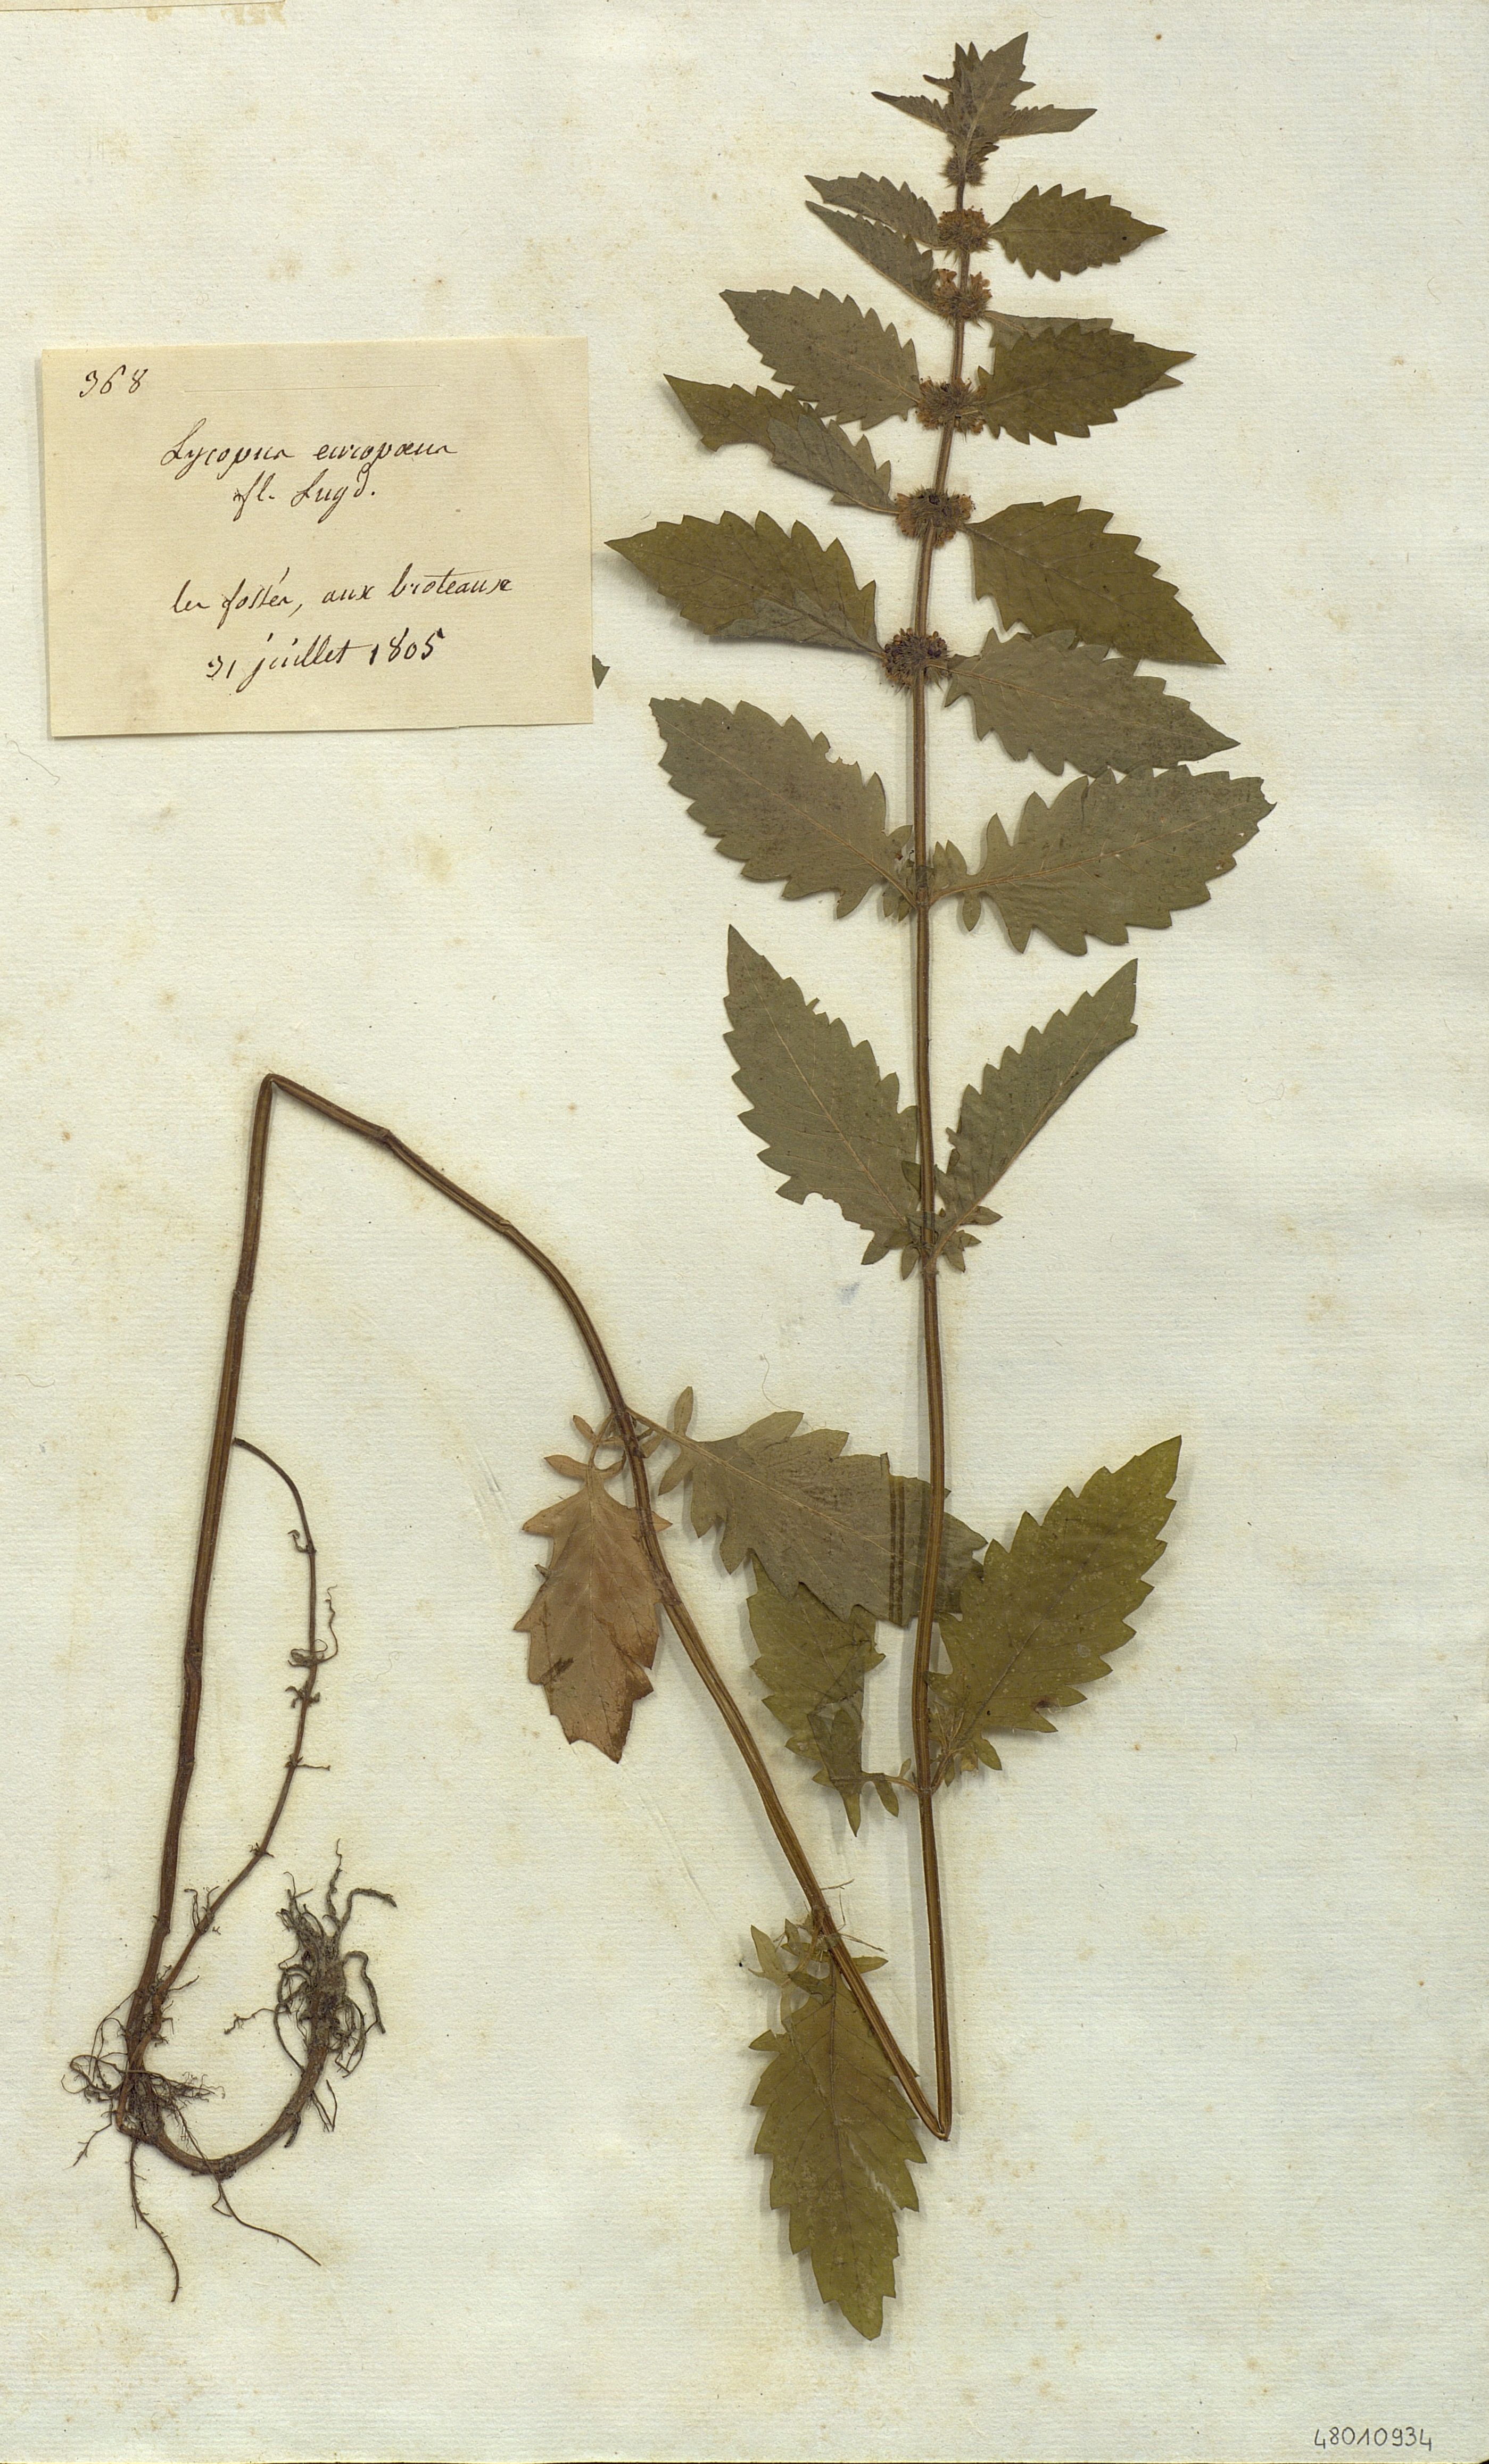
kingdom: Plantae
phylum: Tracheophyta
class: Magnoliopsida
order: Lamiales
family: Lamiaceae
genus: Lycopus
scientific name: Lycopus europaeus
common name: European bugleweed
